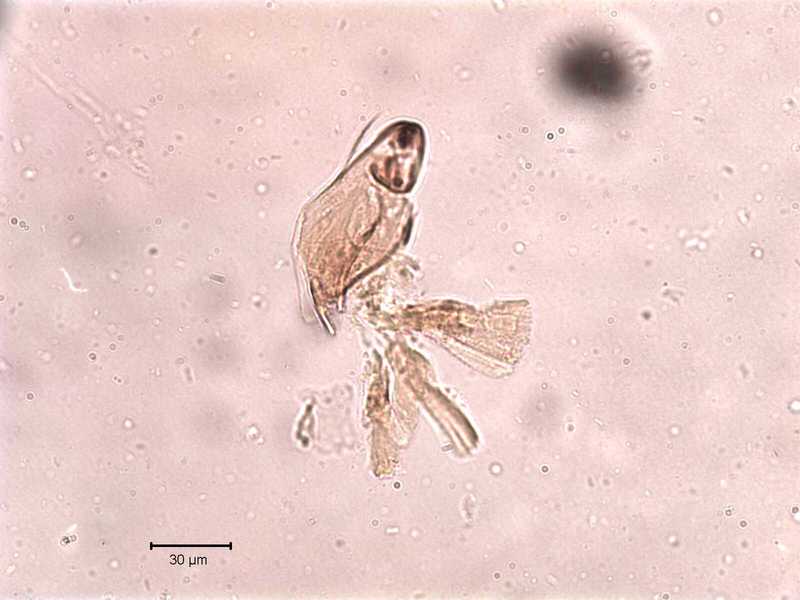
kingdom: Animalia
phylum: Arthropoda
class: Arachnida
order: Sarcoptiformes
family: Tegoribatidae
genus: Plakoribates
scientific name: Plakoribates multicuspidatus
